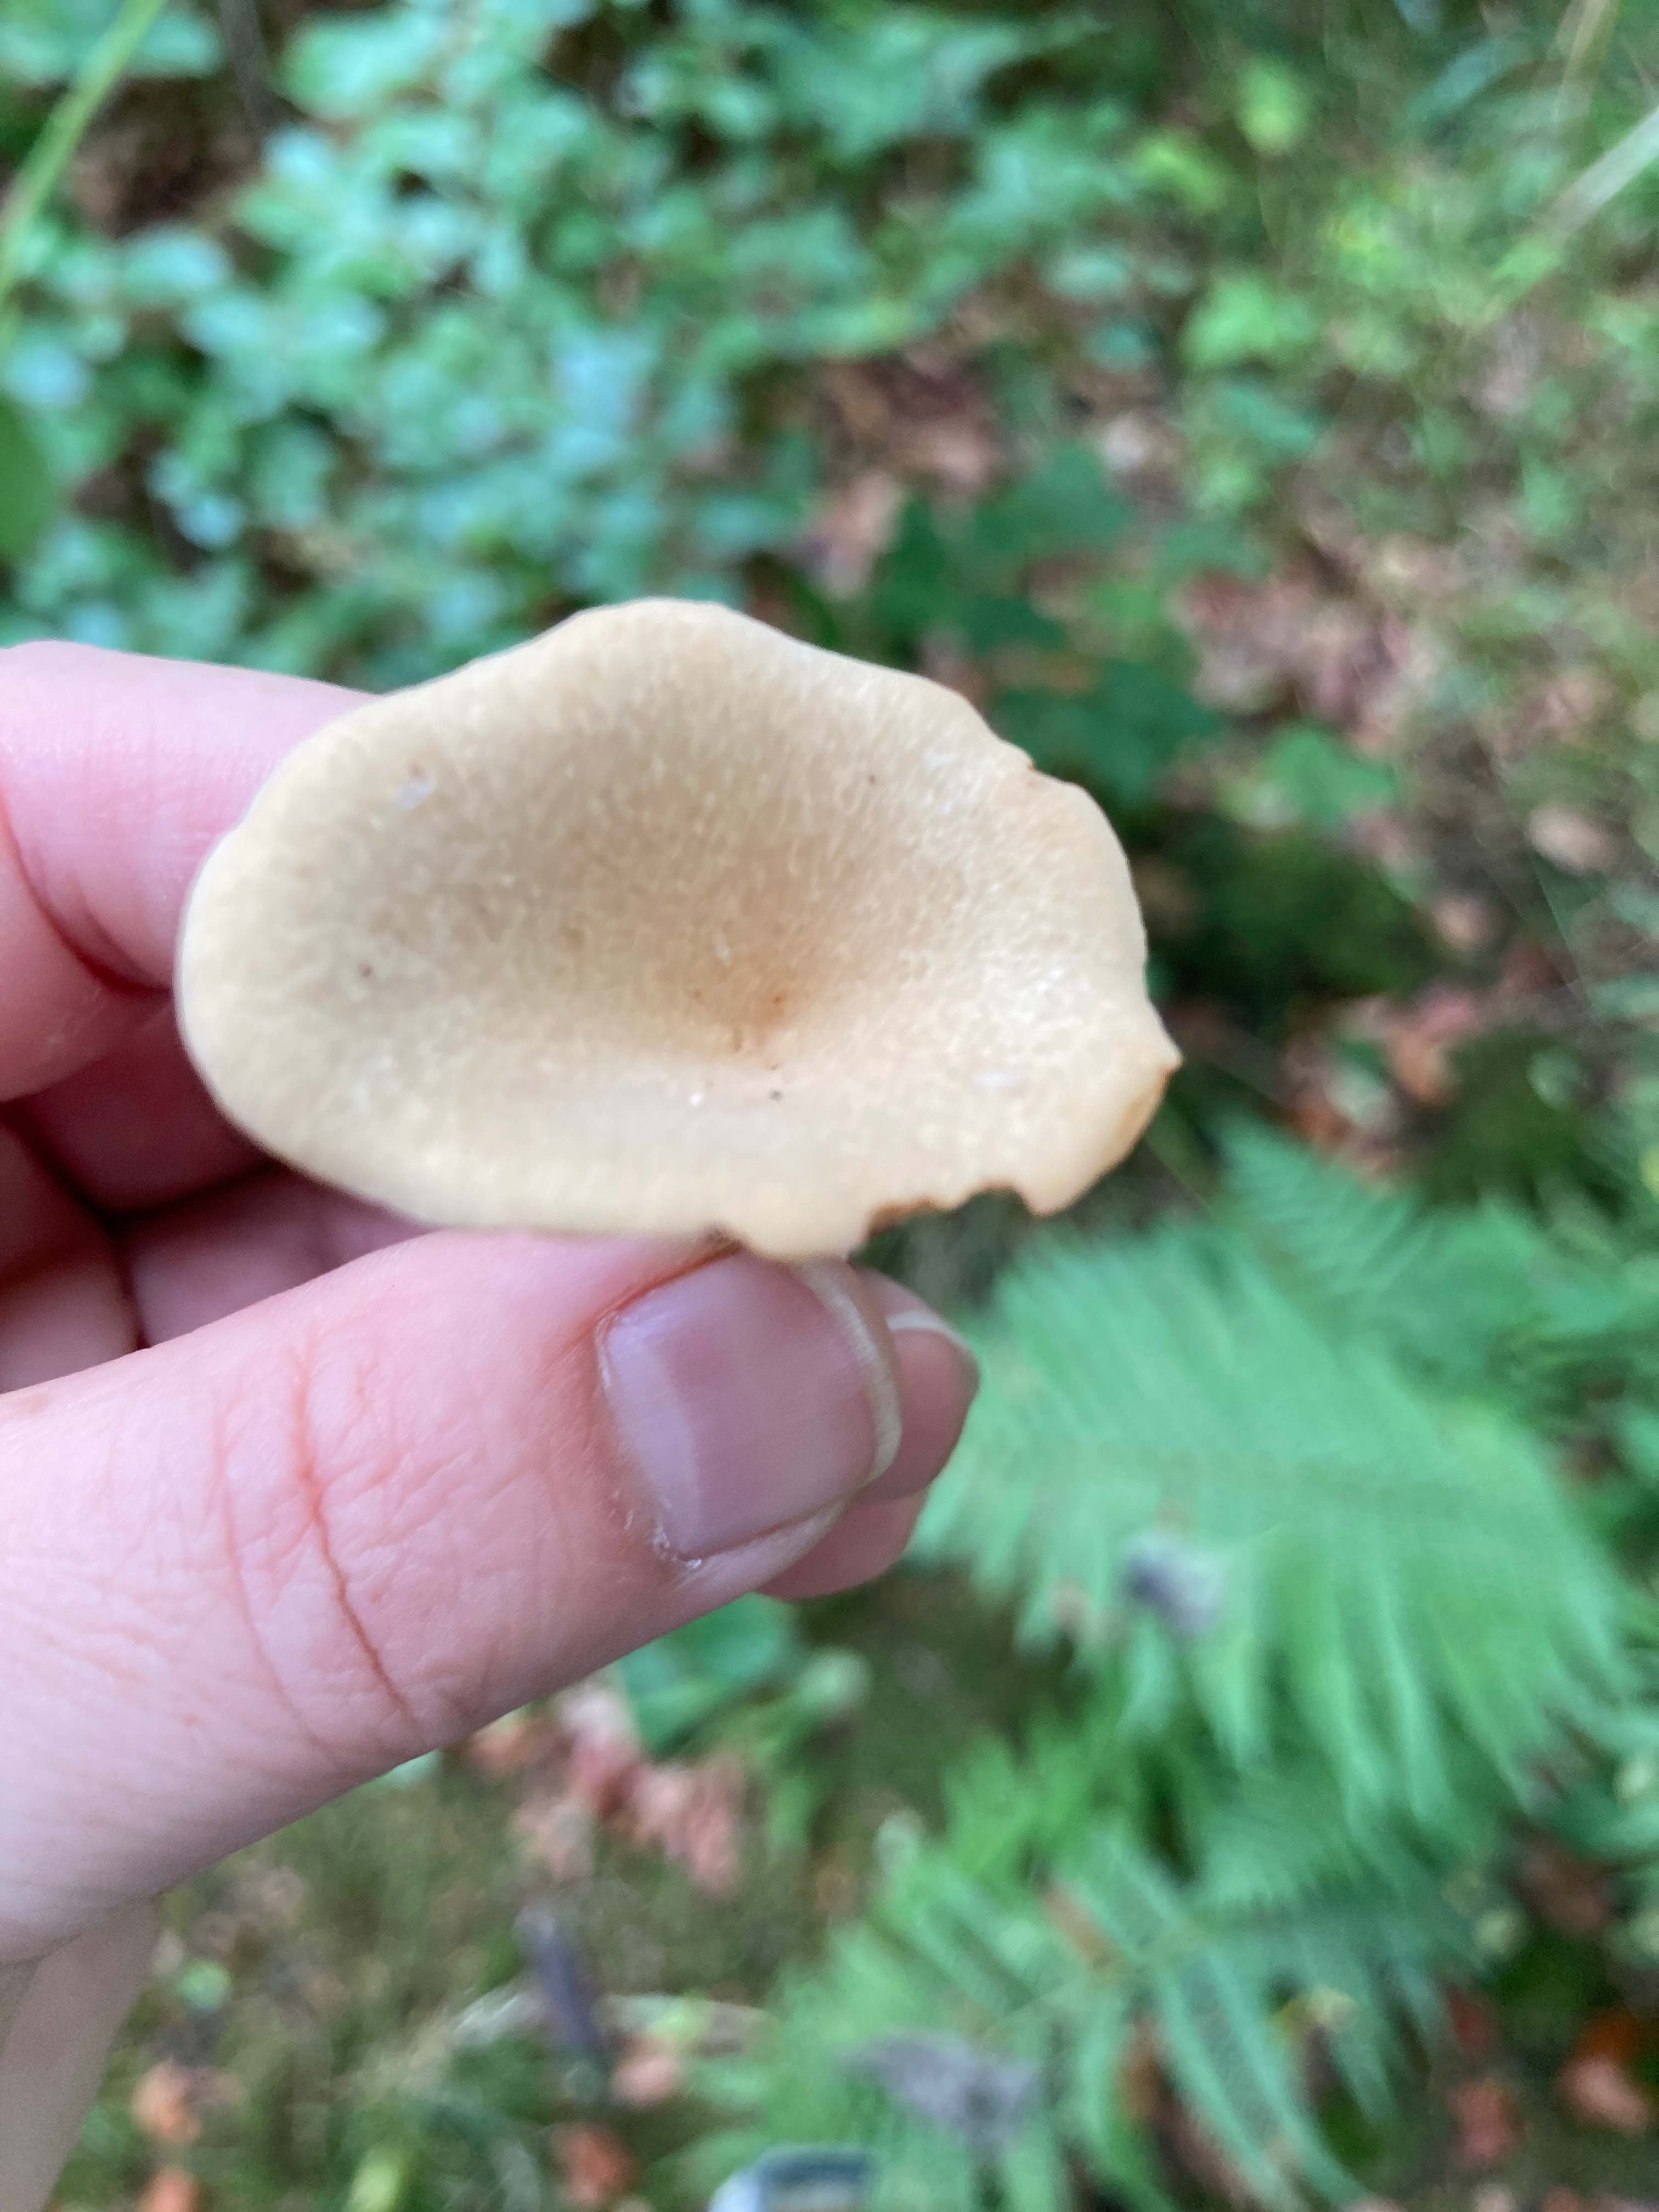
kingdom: Fungi
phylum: Basidiomycota
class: Agaricomycetes
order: Polyporales
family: Polyporaceae
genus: Cerioporus
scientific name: Cerioporus varius
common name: foranderlig stilkporesvamp
